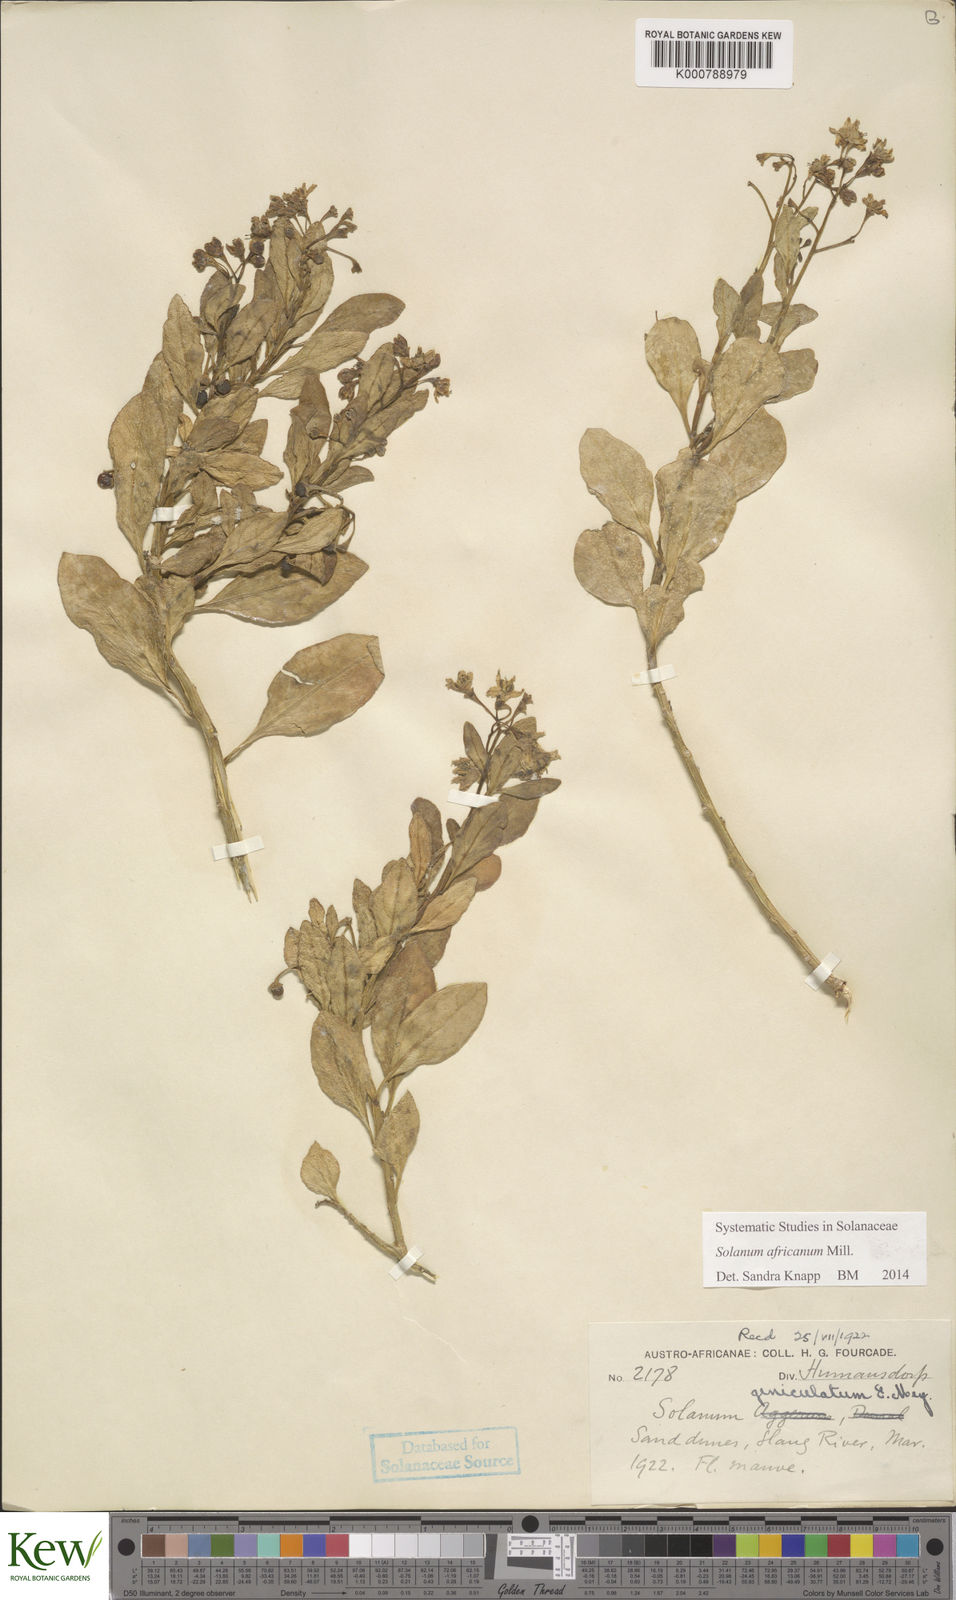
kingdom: Plantae
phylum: Tracheophyta
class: Magnoliopsida
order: Solanales
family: Solanaceae
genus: Solanum
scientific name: Solanum africanum
